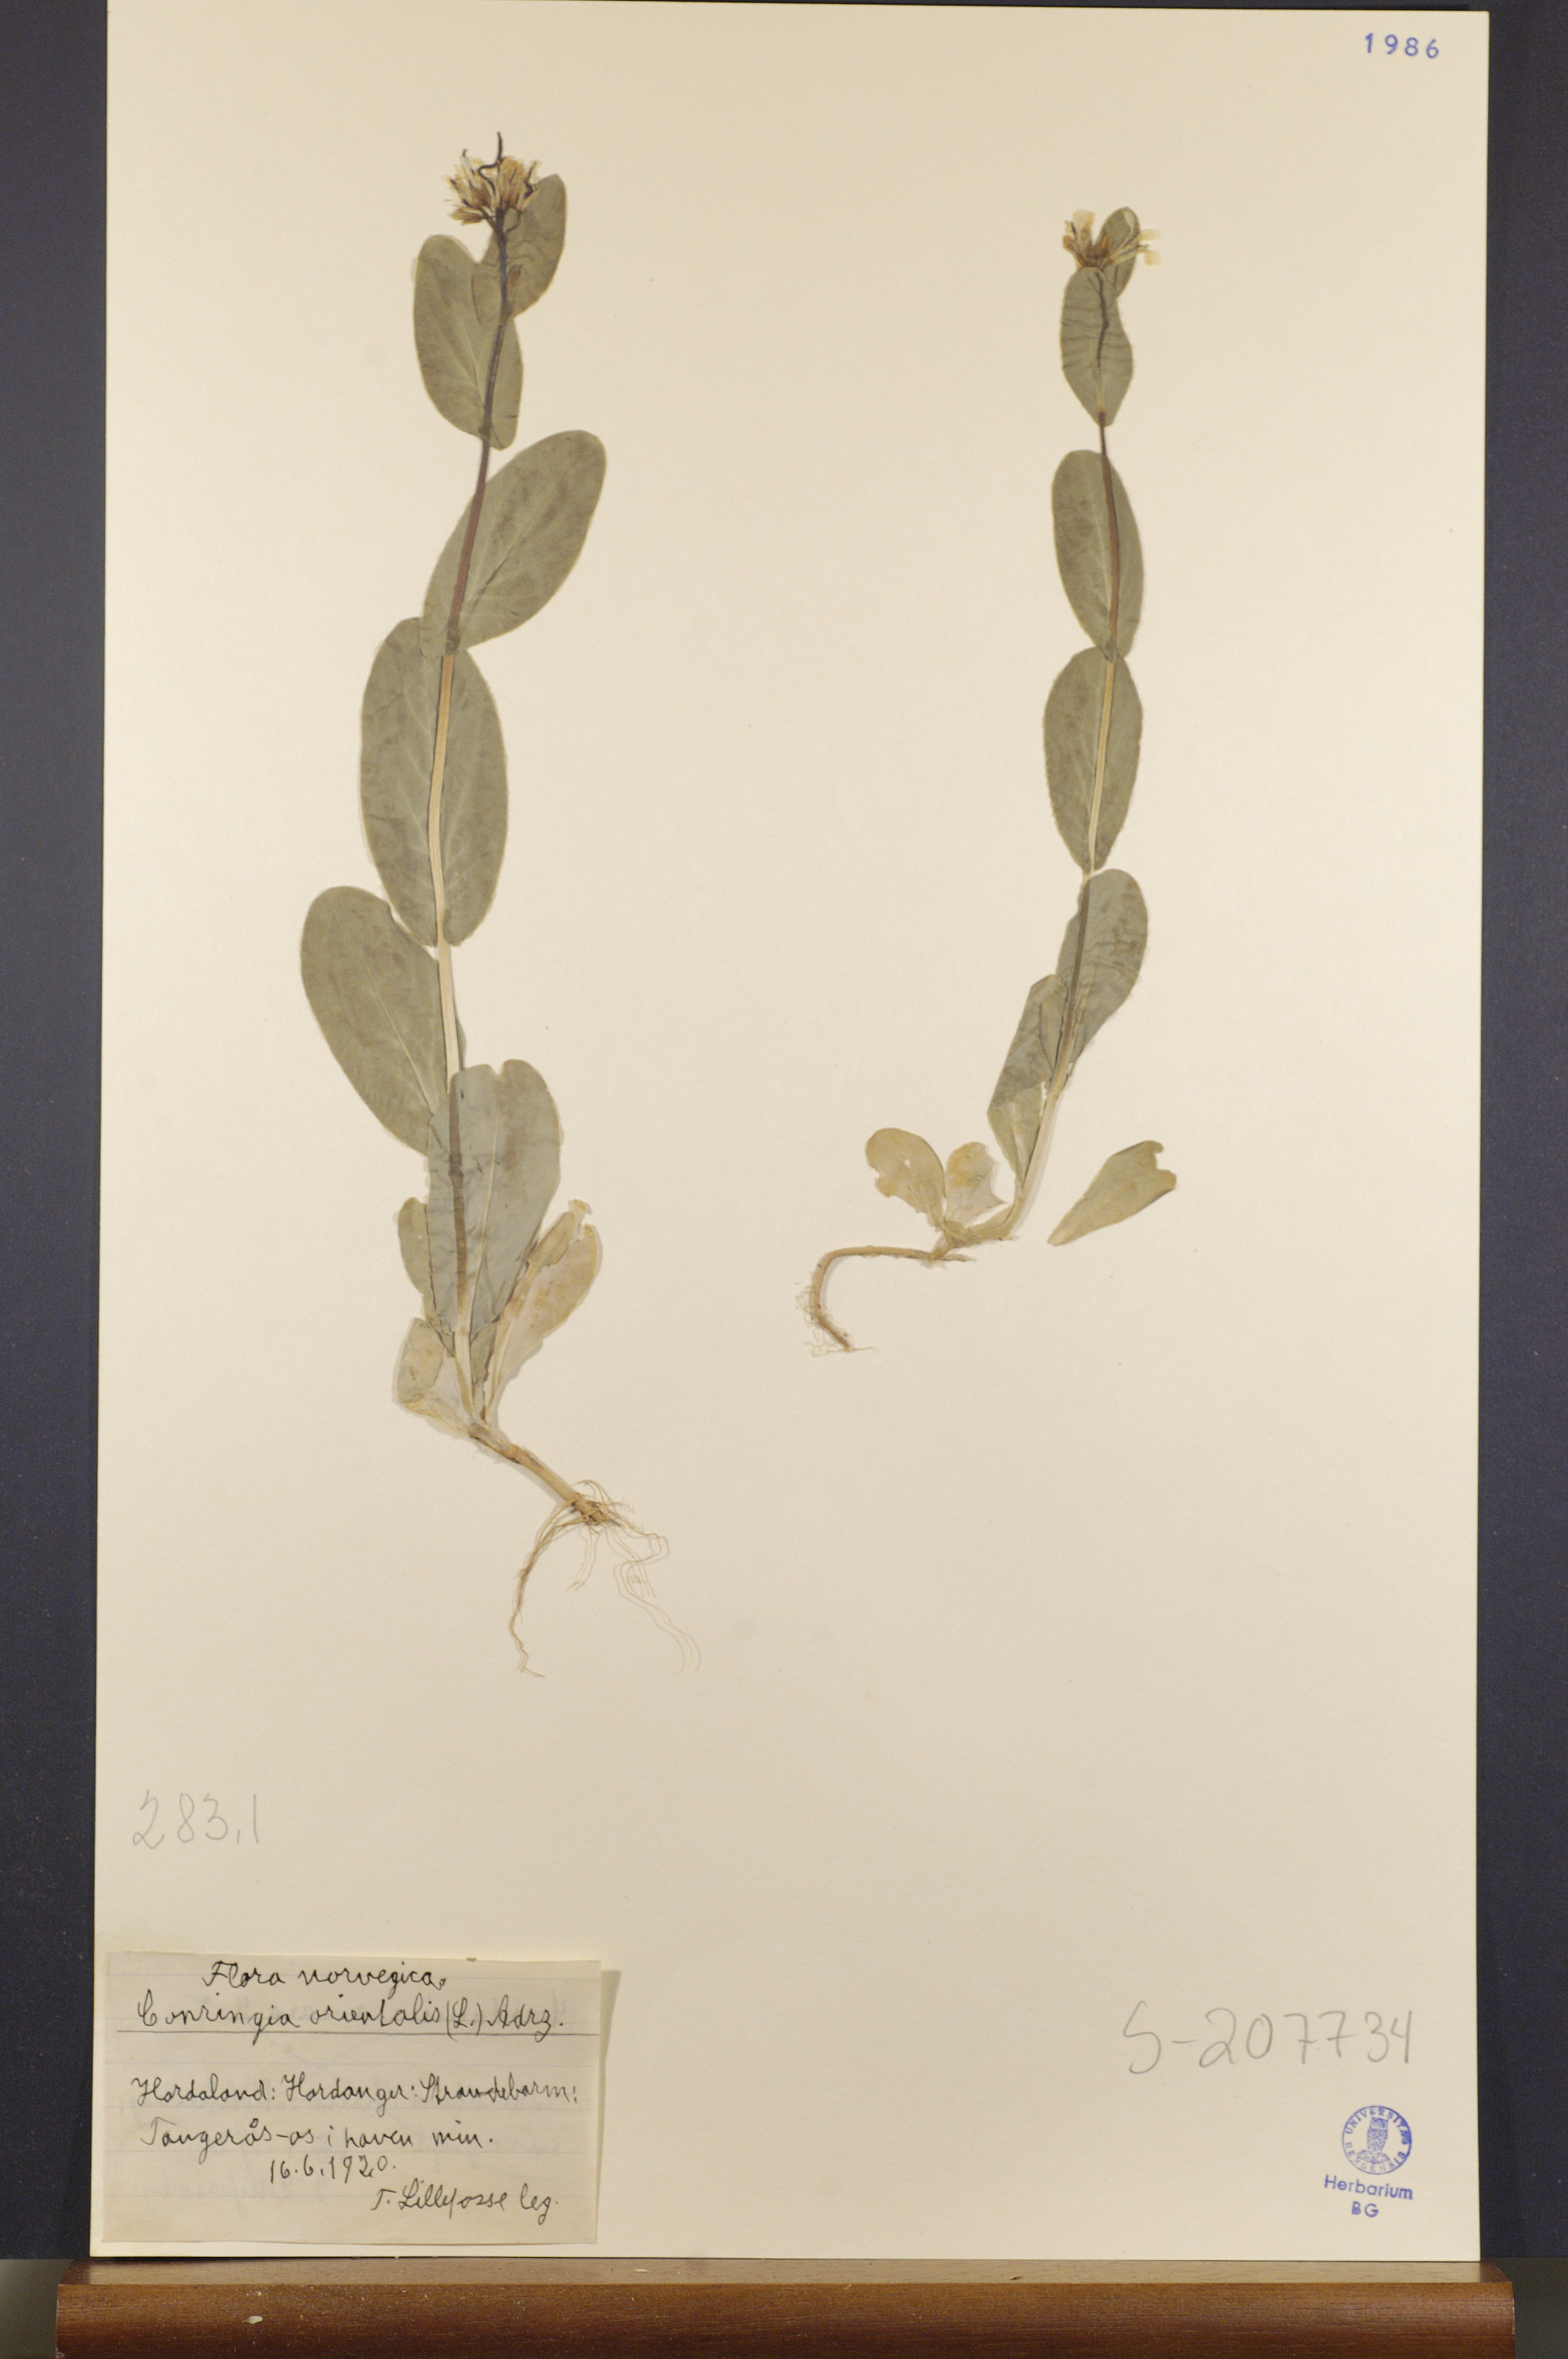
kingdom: Plantae
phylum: Tracheophyta
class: Magnoliopsida
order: Brassicales
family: Brassicaceae
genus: Conringia
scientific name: Conringia orientalis
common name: Hare's ear mustard
